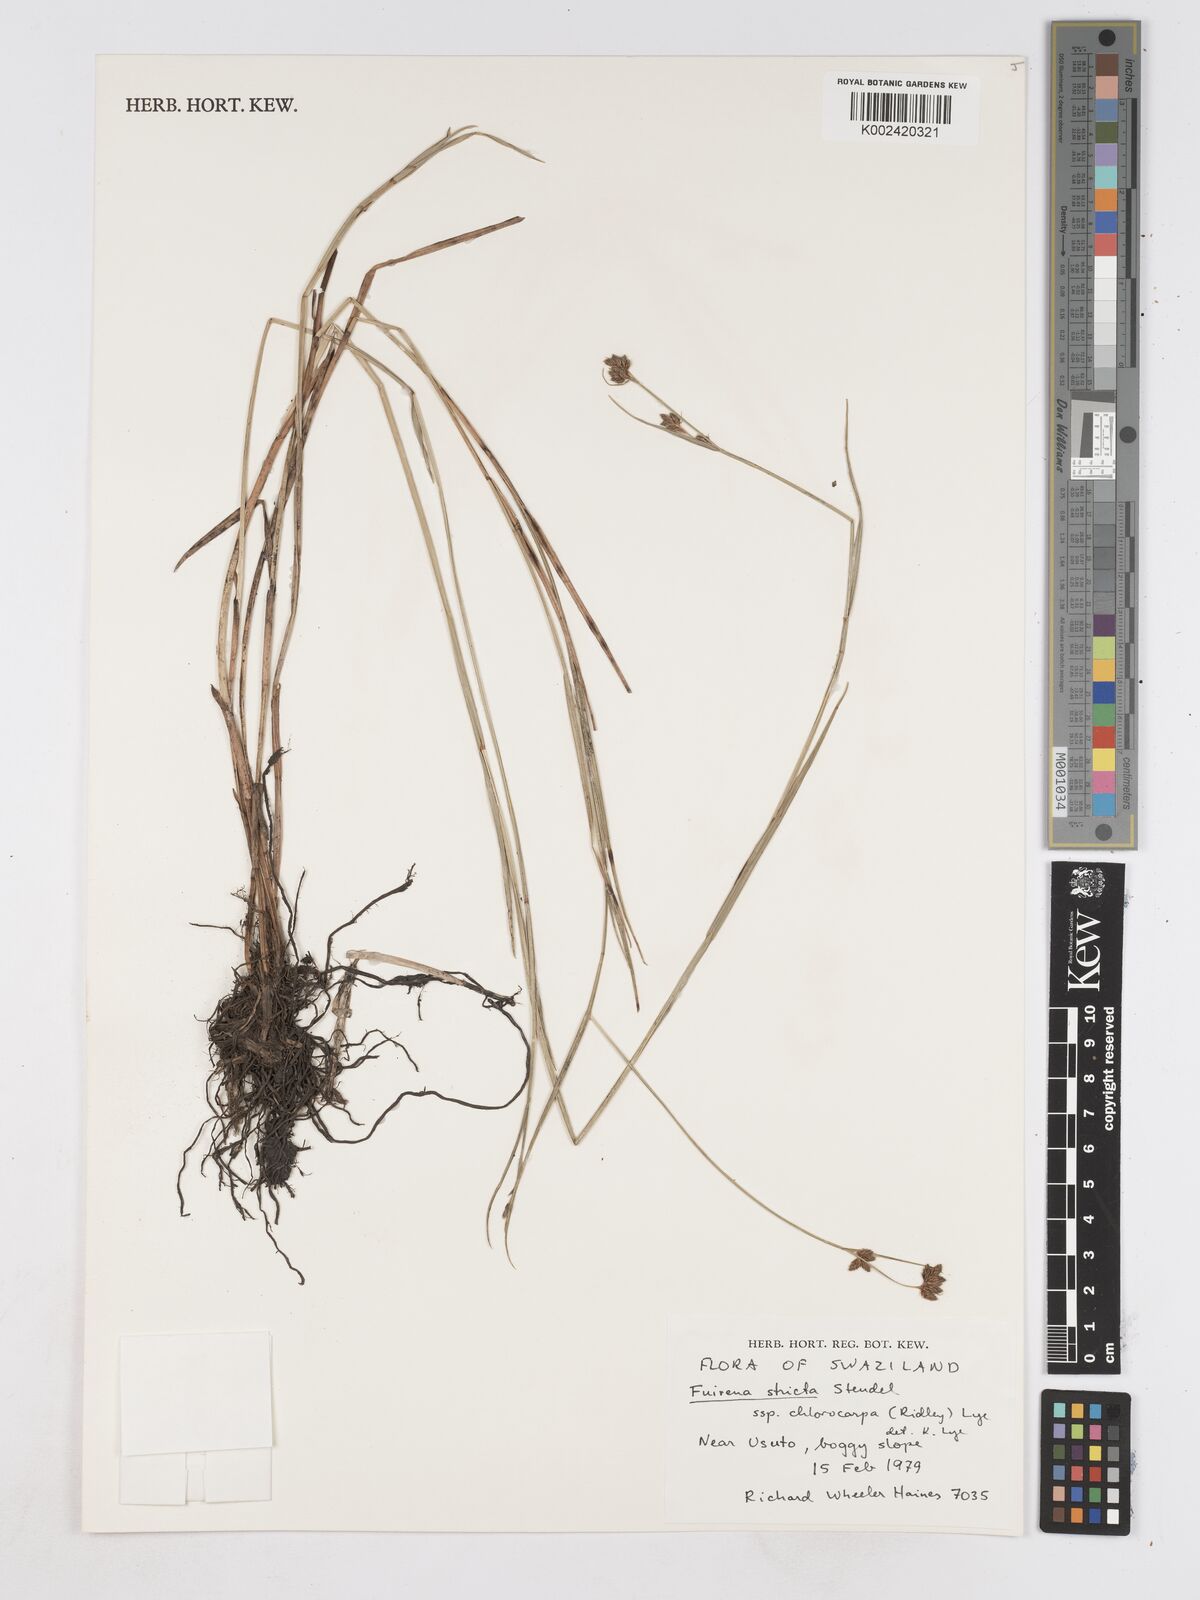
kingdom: Plantae
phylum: Tracheophyta
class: Liliopsida
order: Poales
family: Cyperaceae
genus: Fuirena
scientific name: Fuirena stricta
